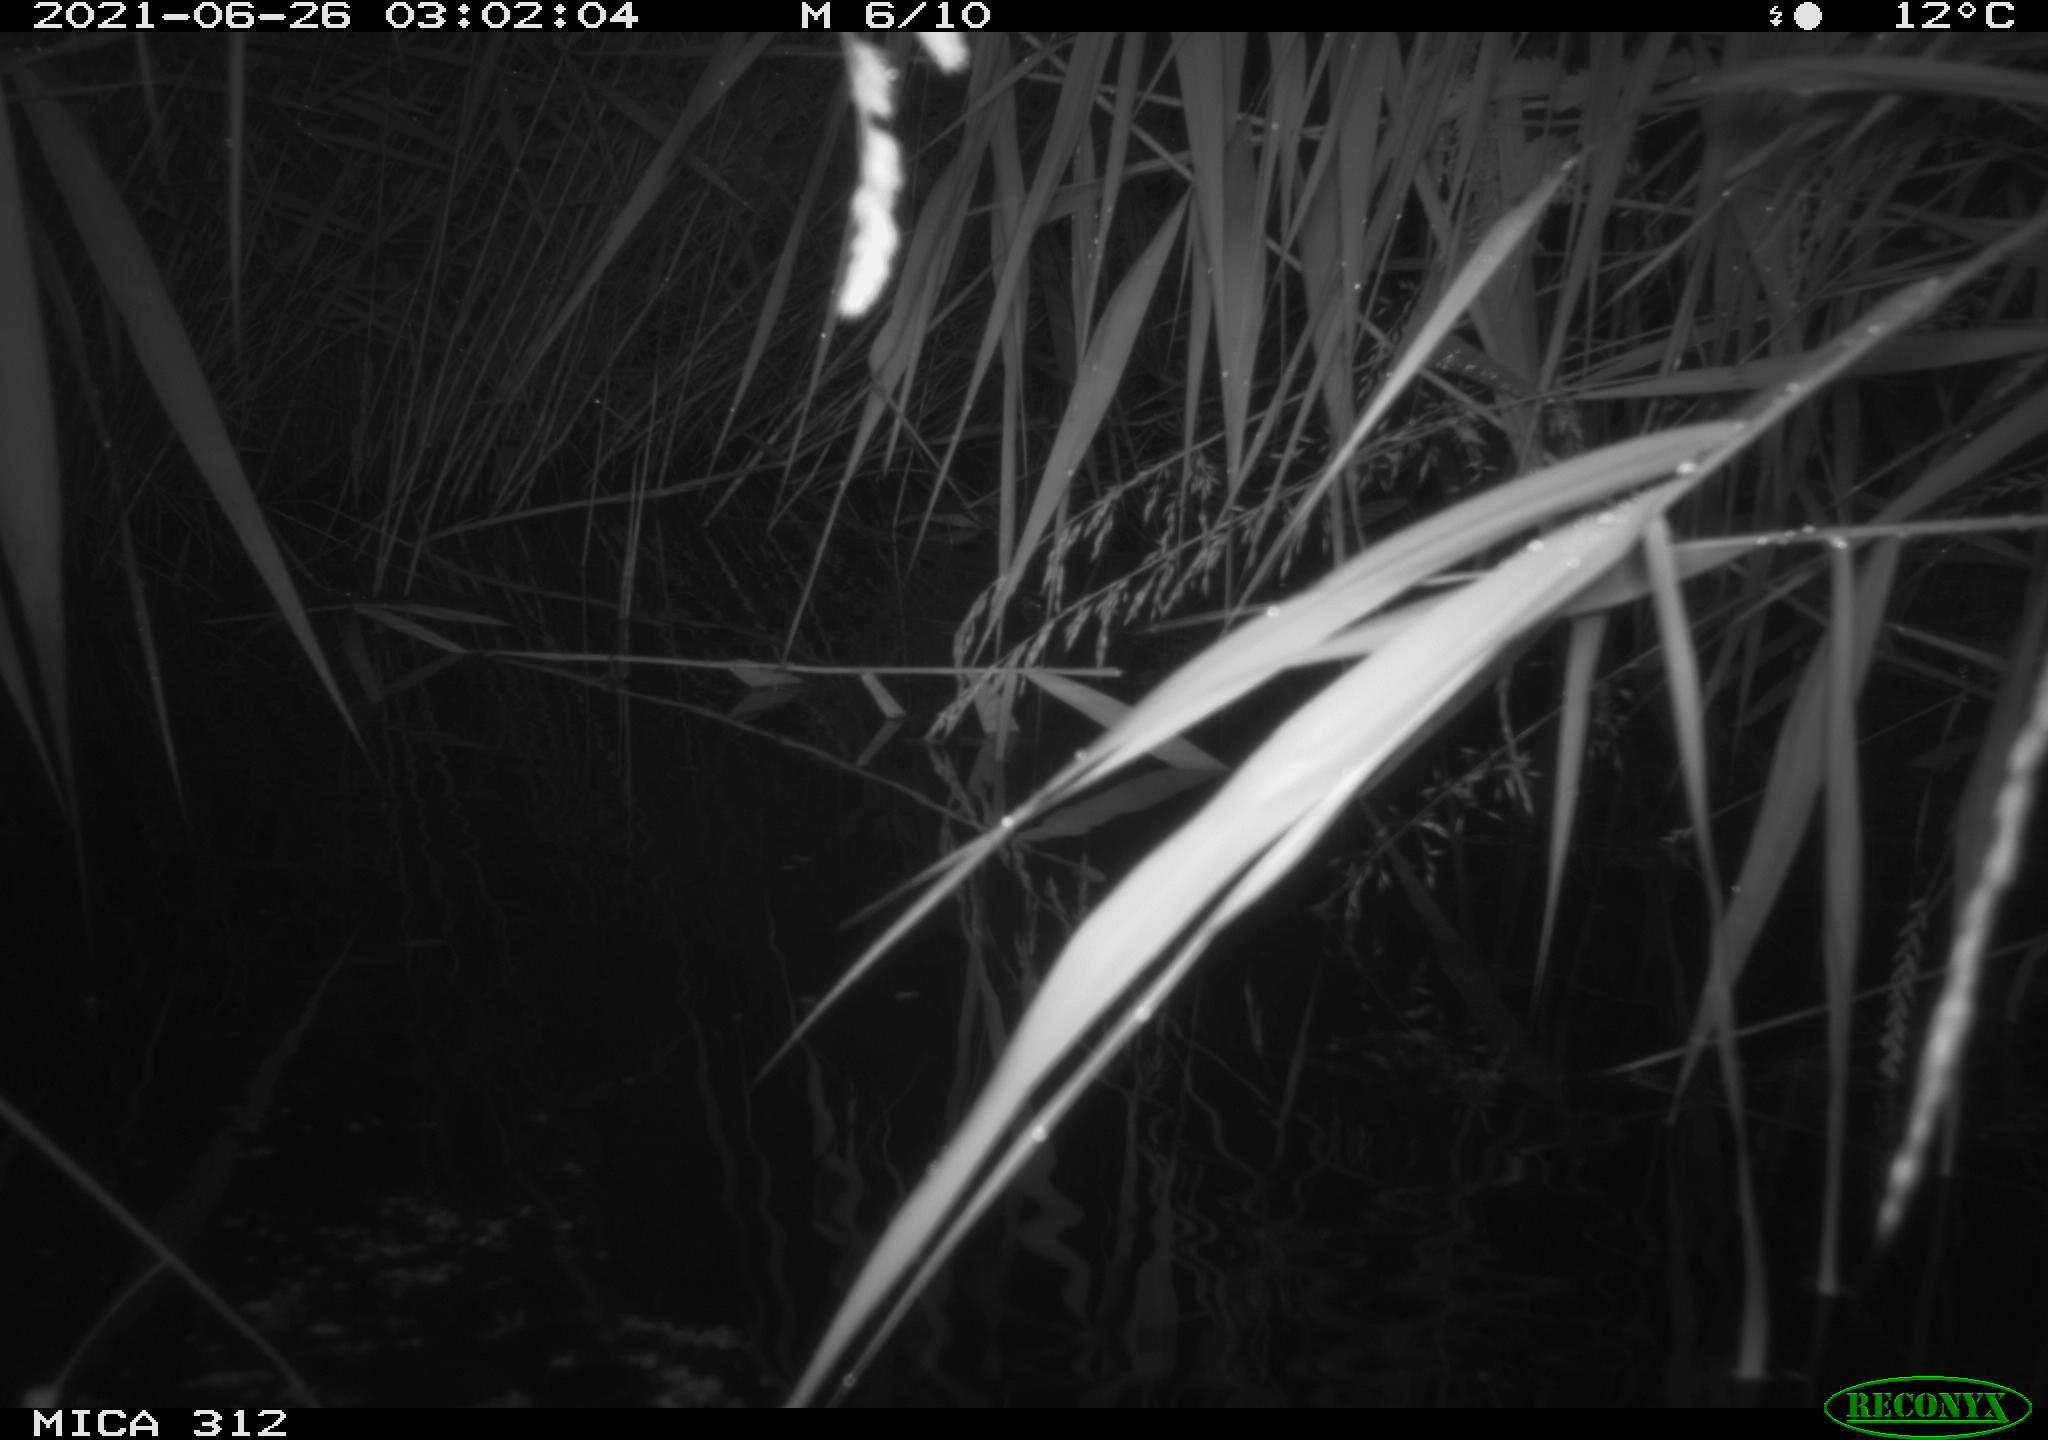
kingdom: Animalia
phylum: Chordata
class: Mammalia
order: Rodentia
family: Cricetidae
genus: Ondatra
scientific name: Ondatra zibethicus
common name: Muskrat
